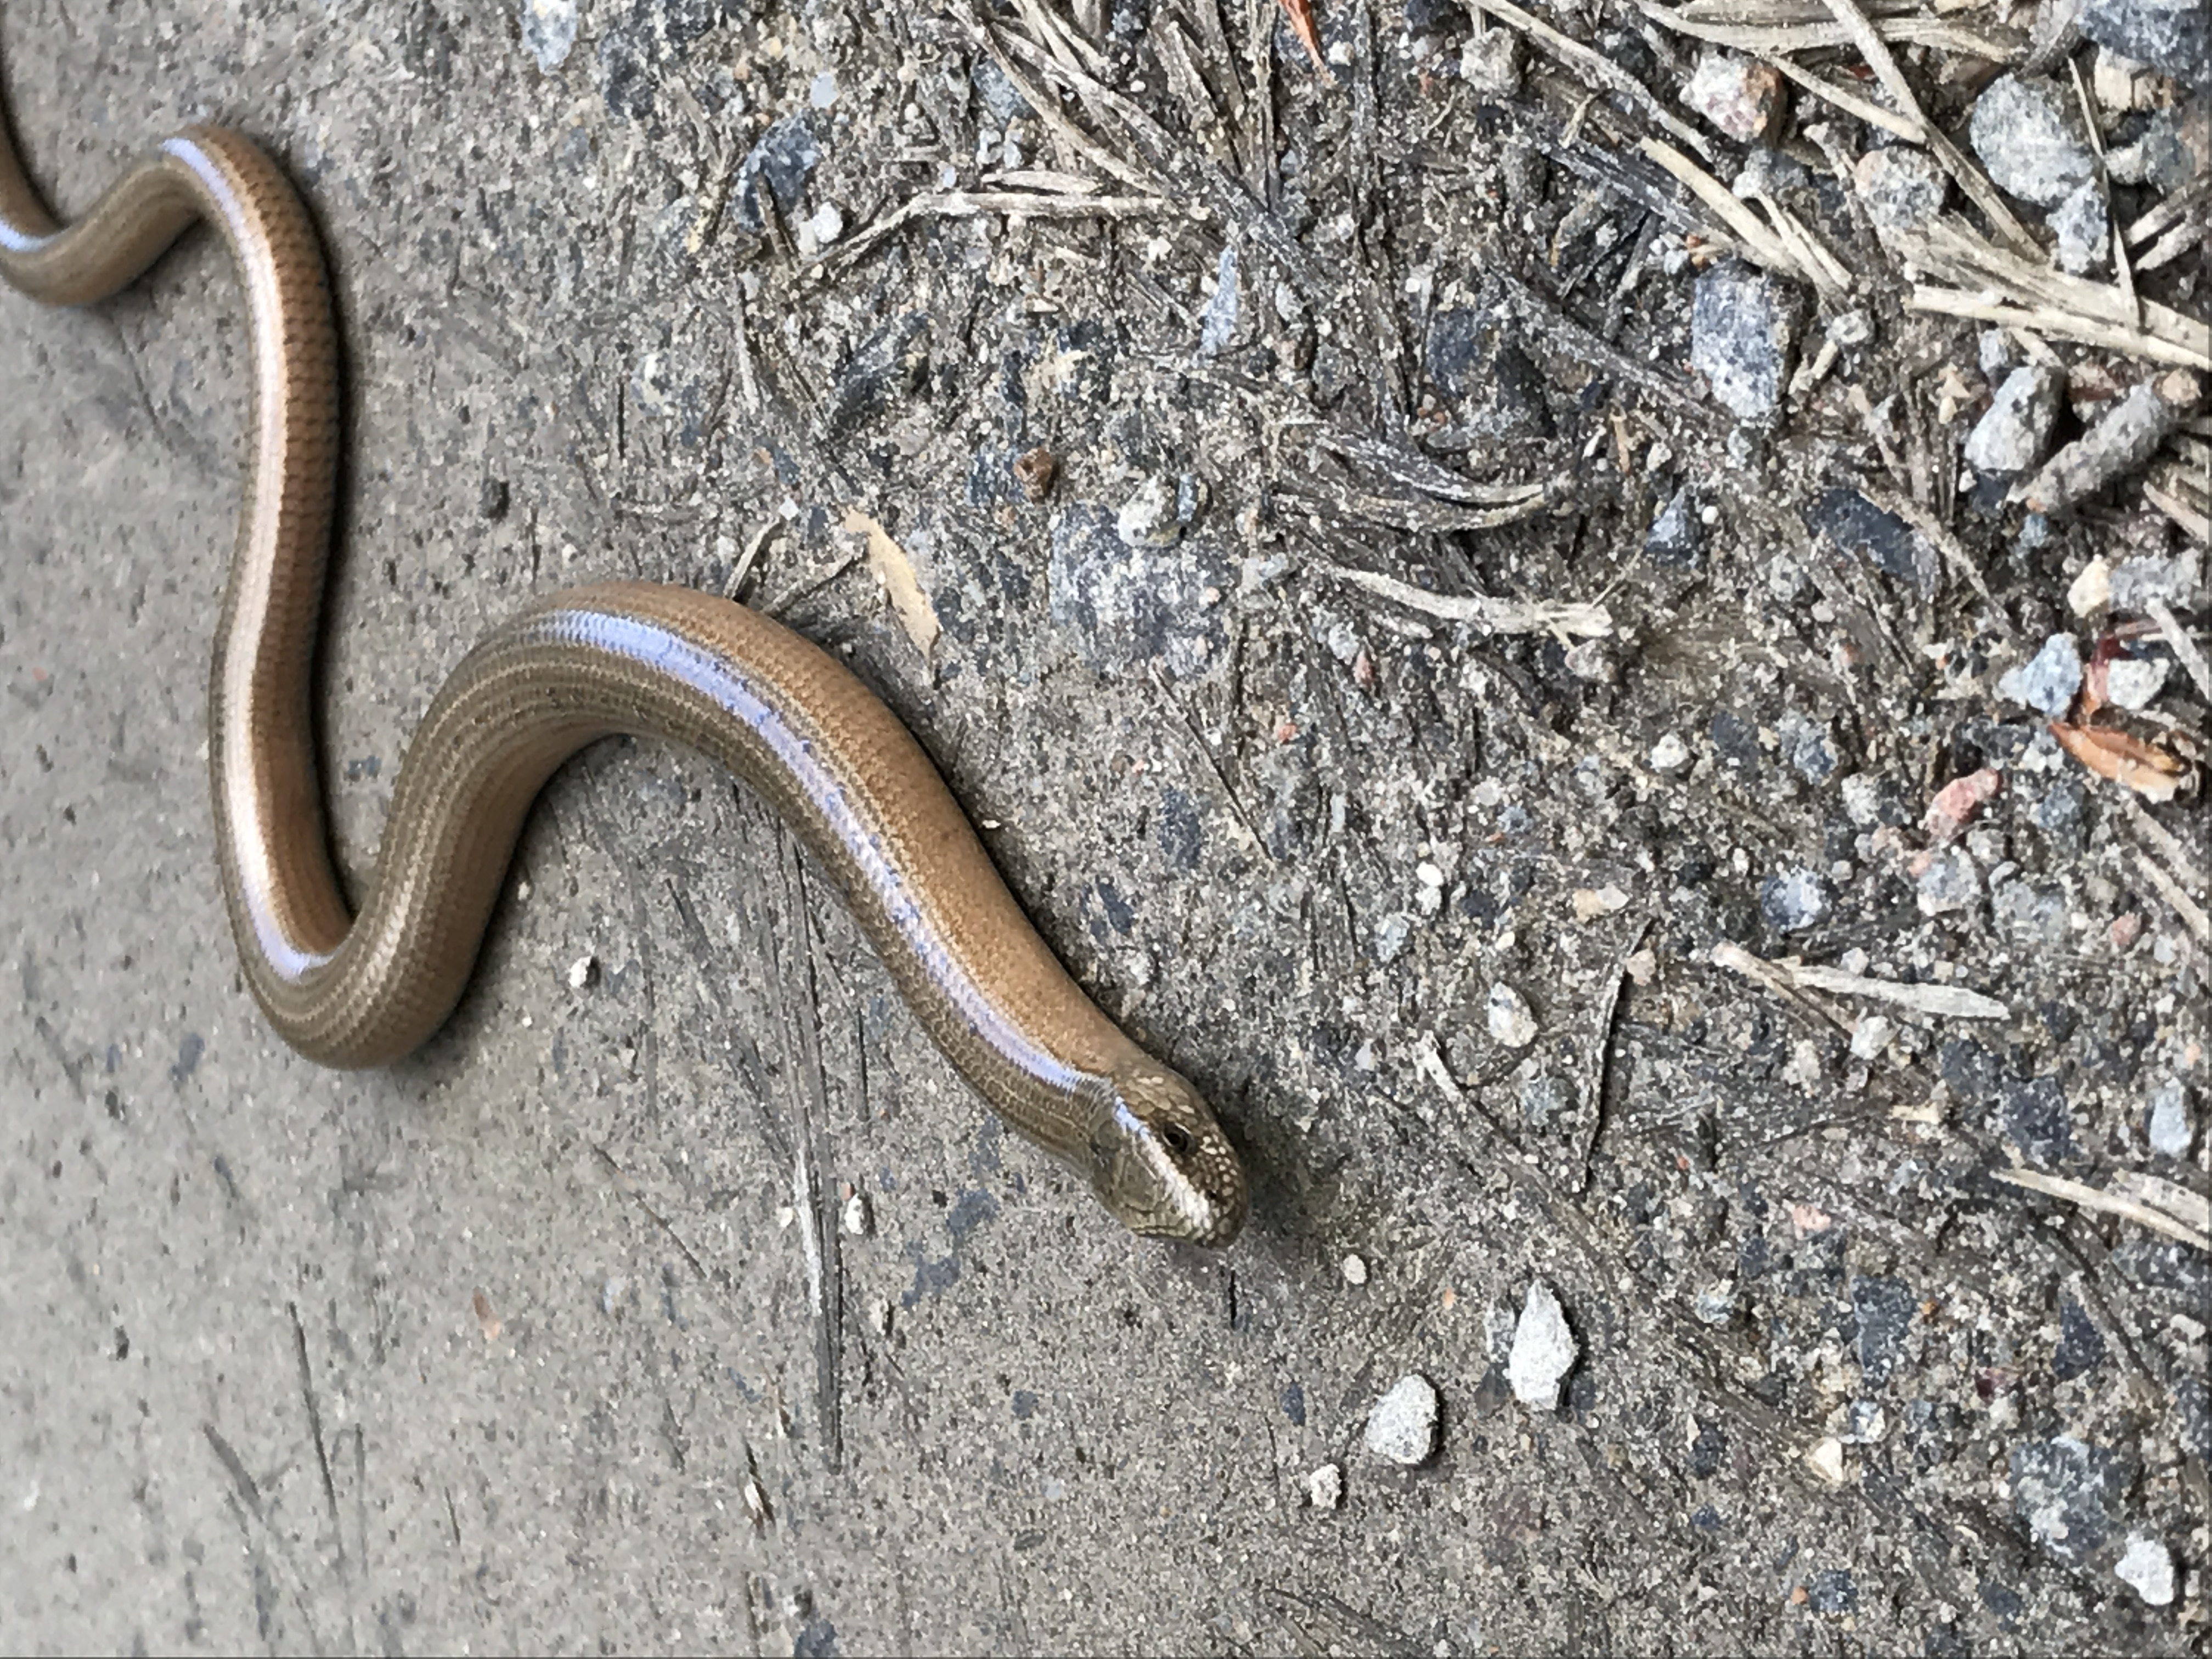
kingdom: Animalia
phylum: Chordata
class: Squamata
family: Anguidae
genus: Anguis
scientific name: Anguis colchica
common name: Slow worm
